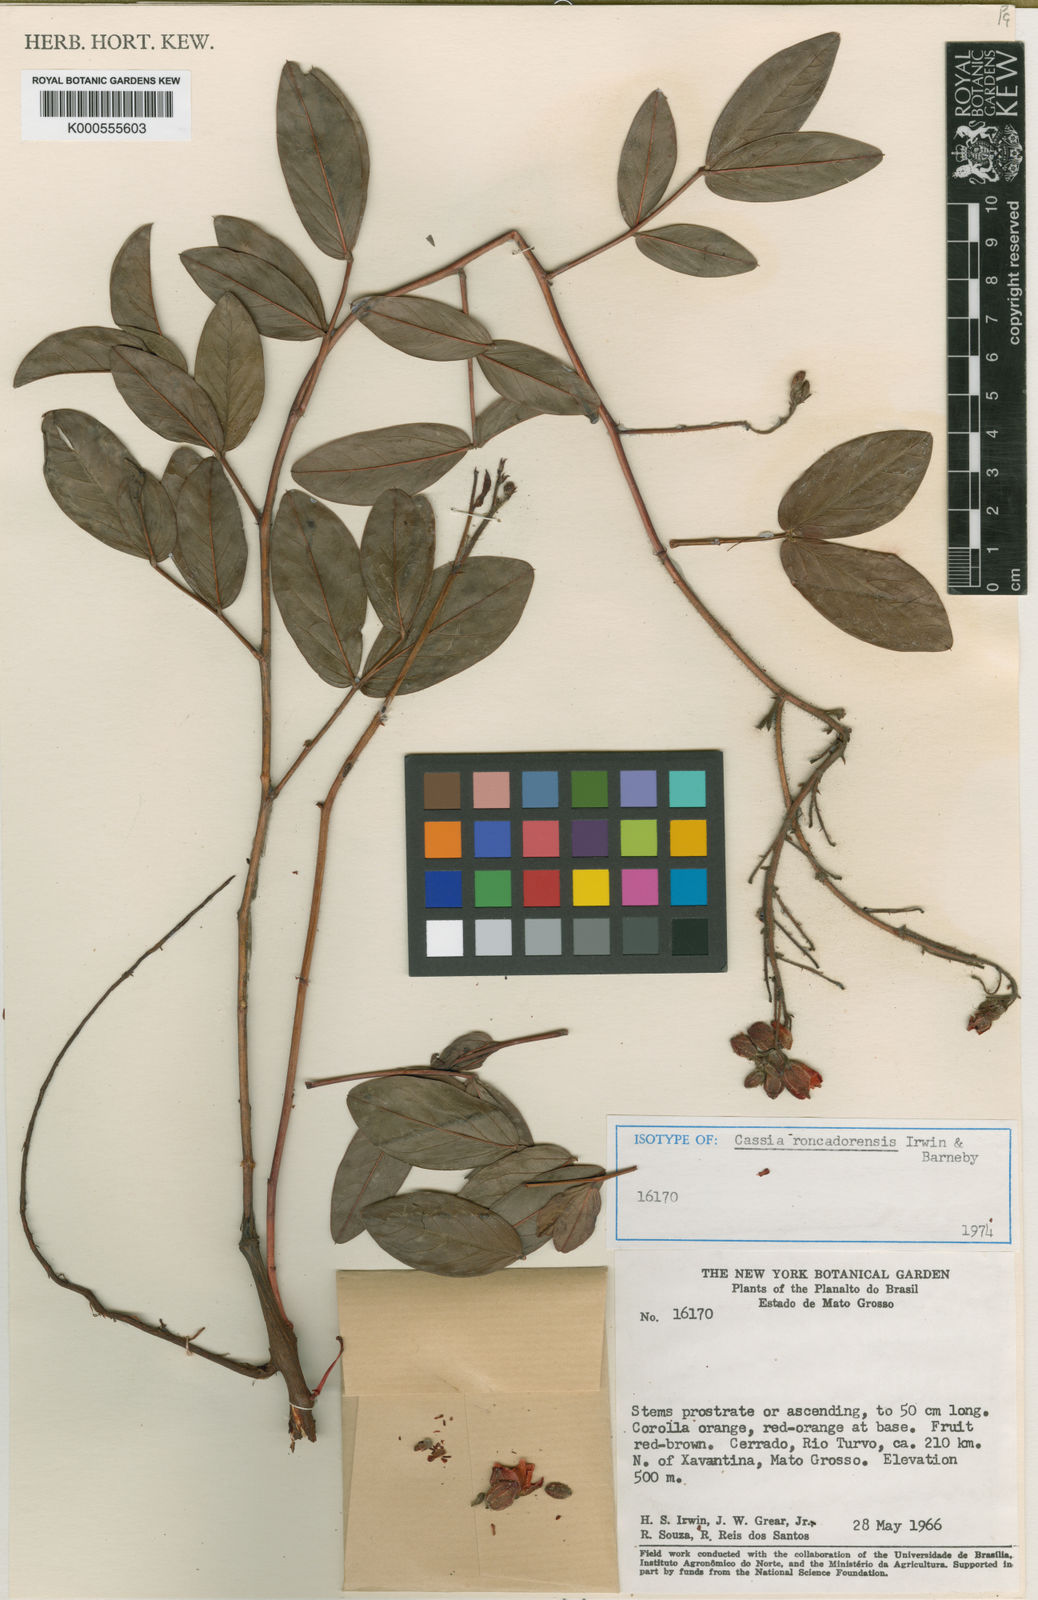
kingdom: Plantae
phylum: Tracheophyta
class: Magnoliopsida
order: Fabales
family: Fabaceae
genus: Chamaecrista
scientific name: Chamaecrista roncadorensis
